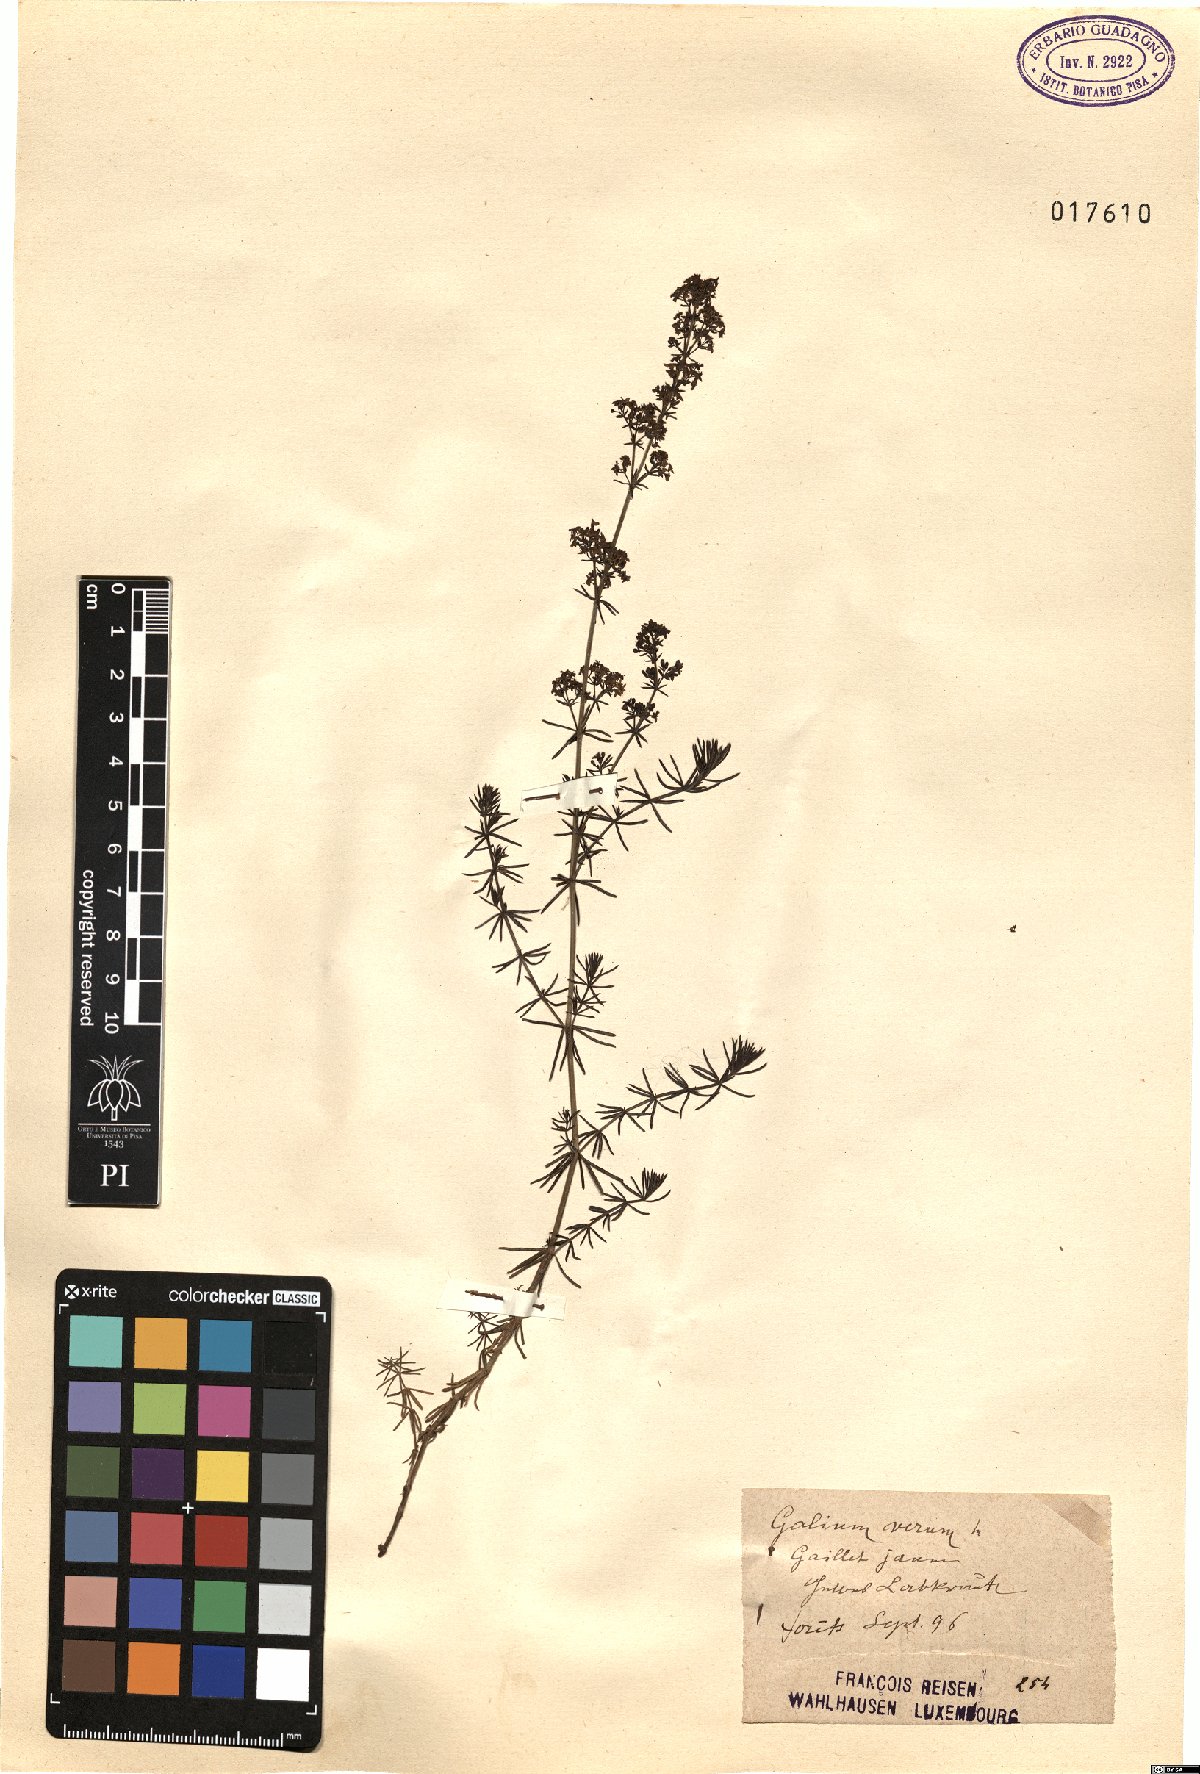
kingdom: Plantae
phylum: Tracheophyta
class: Magnoliopsida
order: Gentianales
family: Rubiaceae
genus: Galium
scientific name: Galium verum
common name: Lady's bedstraw
